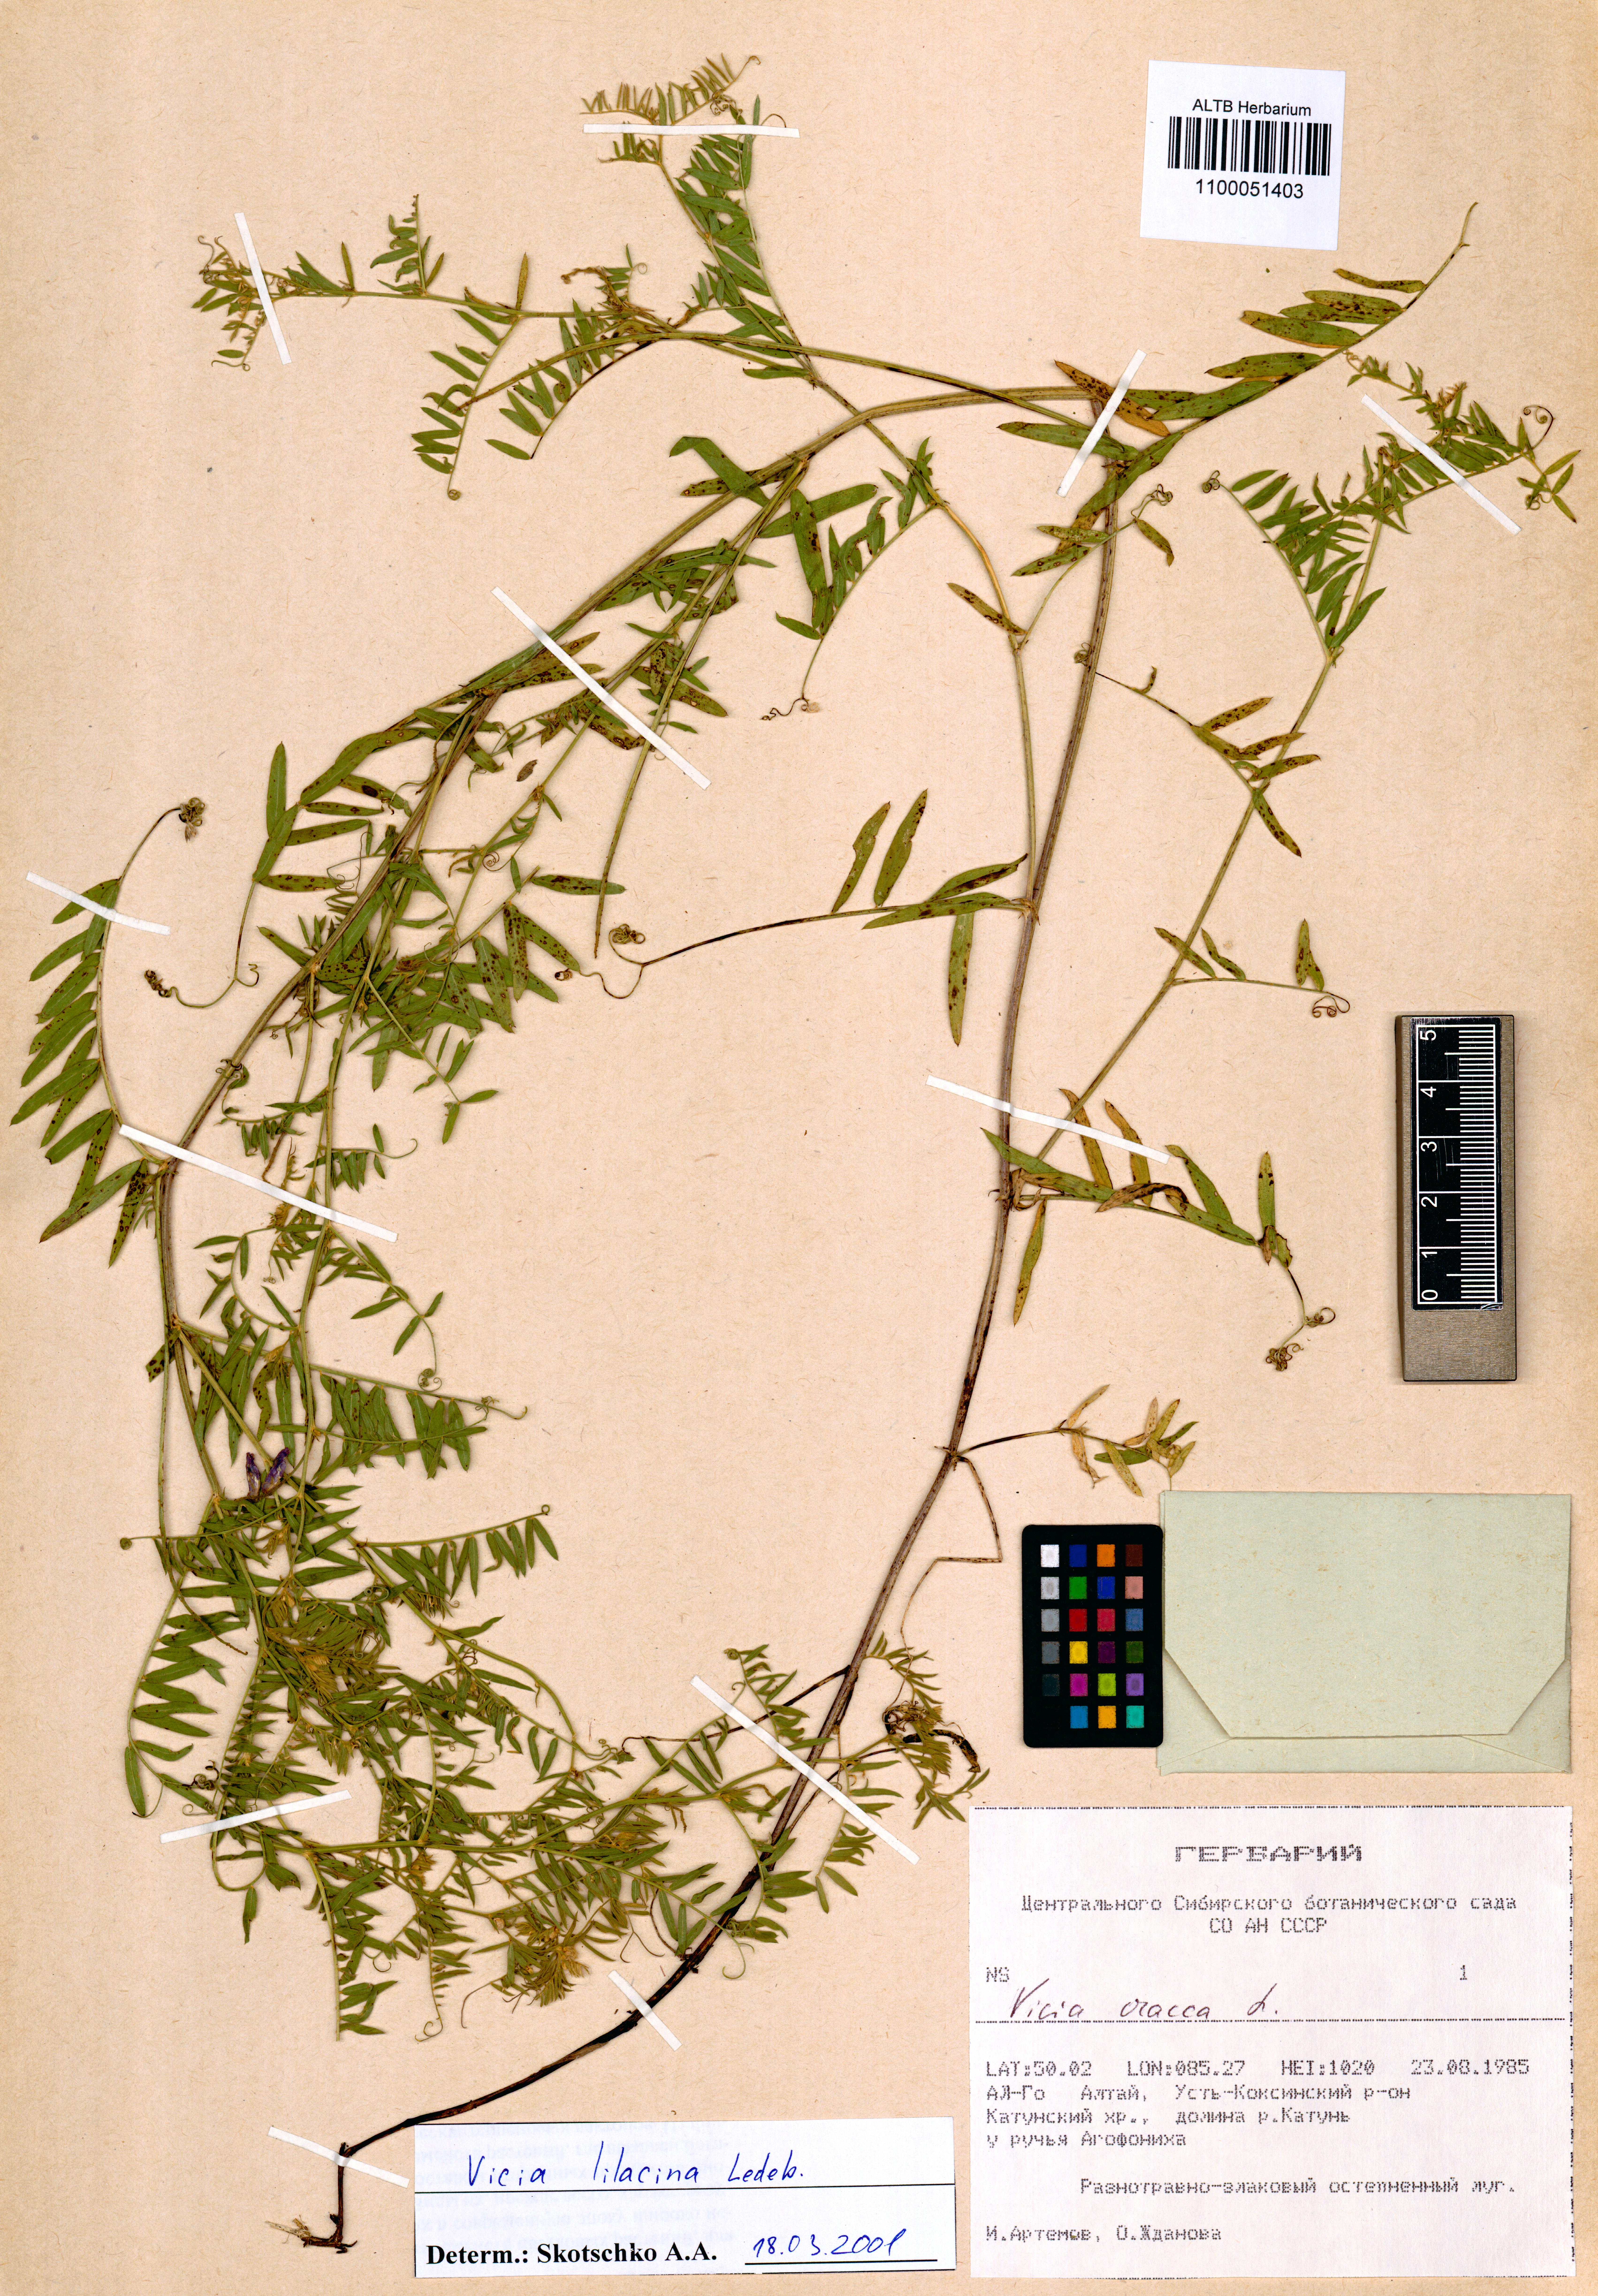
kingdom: Plantae
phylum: Tracheophyta
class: Magnoliopsida
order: Fabales
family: Fabaceae
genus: Vicia
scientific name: Vicia lilacina
